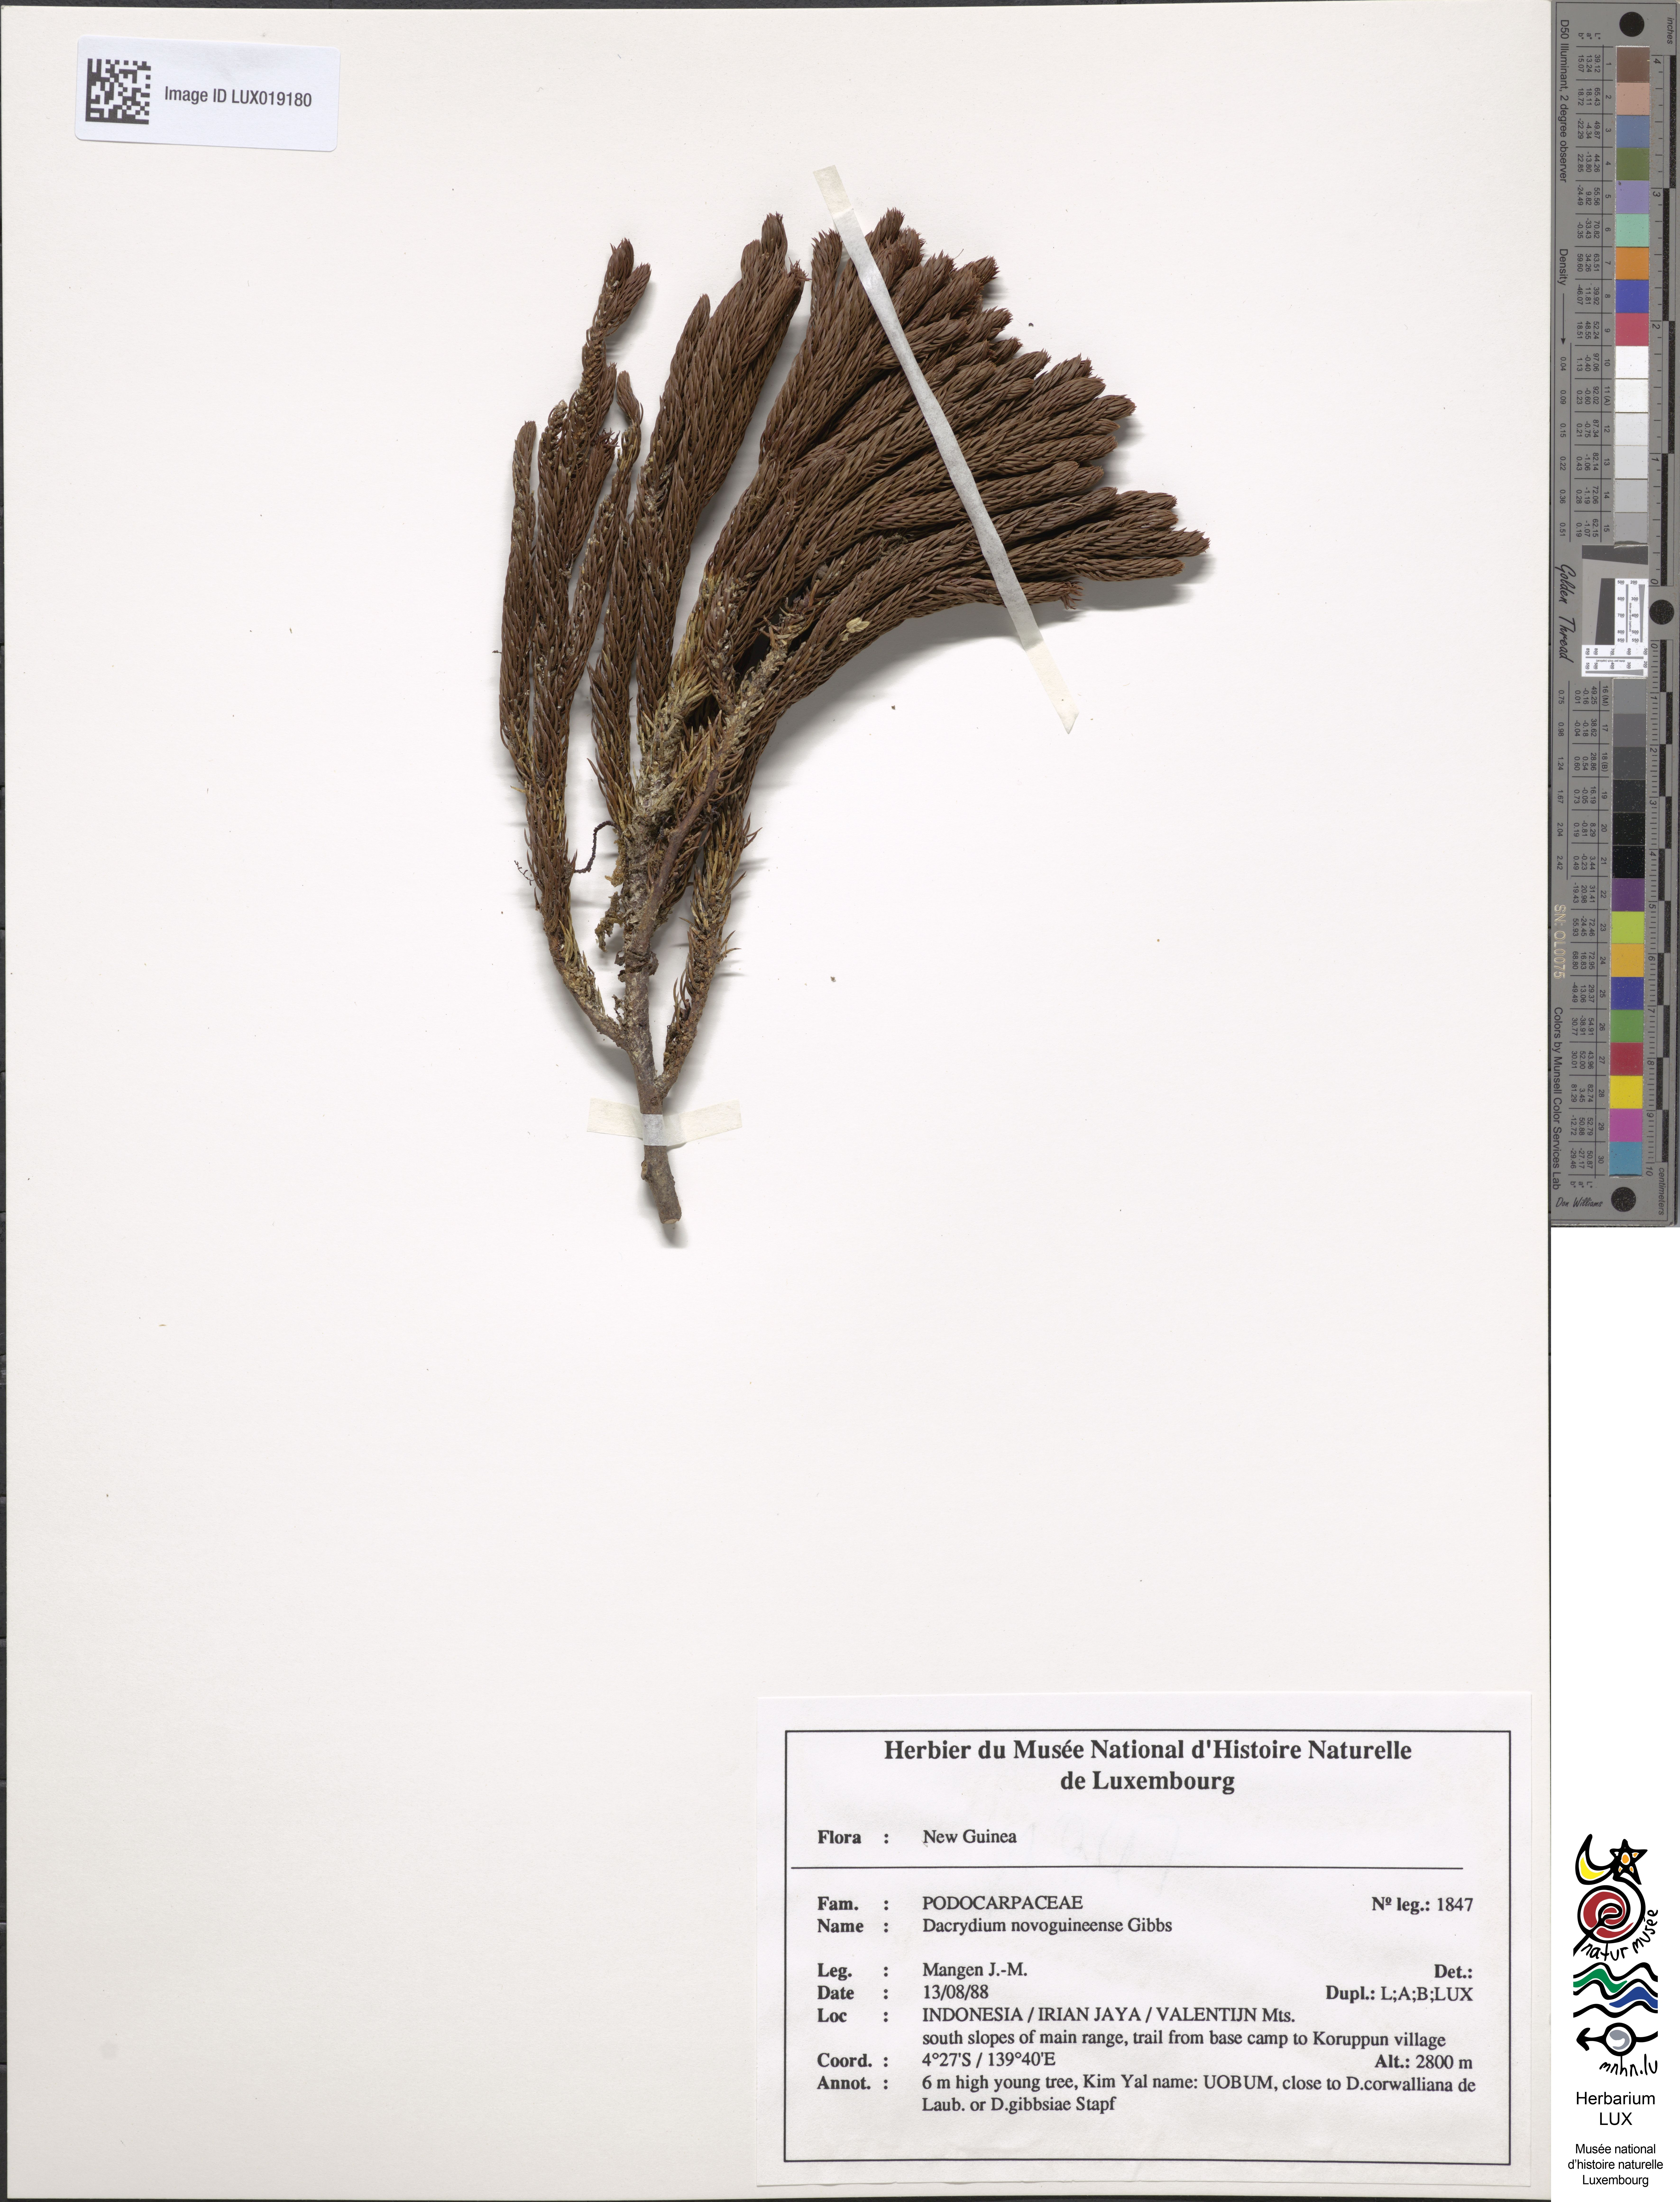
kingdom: Plantae
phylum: Tracheophyta
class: Pinopsida
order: Pinales
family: Podocarpaceae
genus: Dacrydium
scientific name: Dacrydium novoguineense
